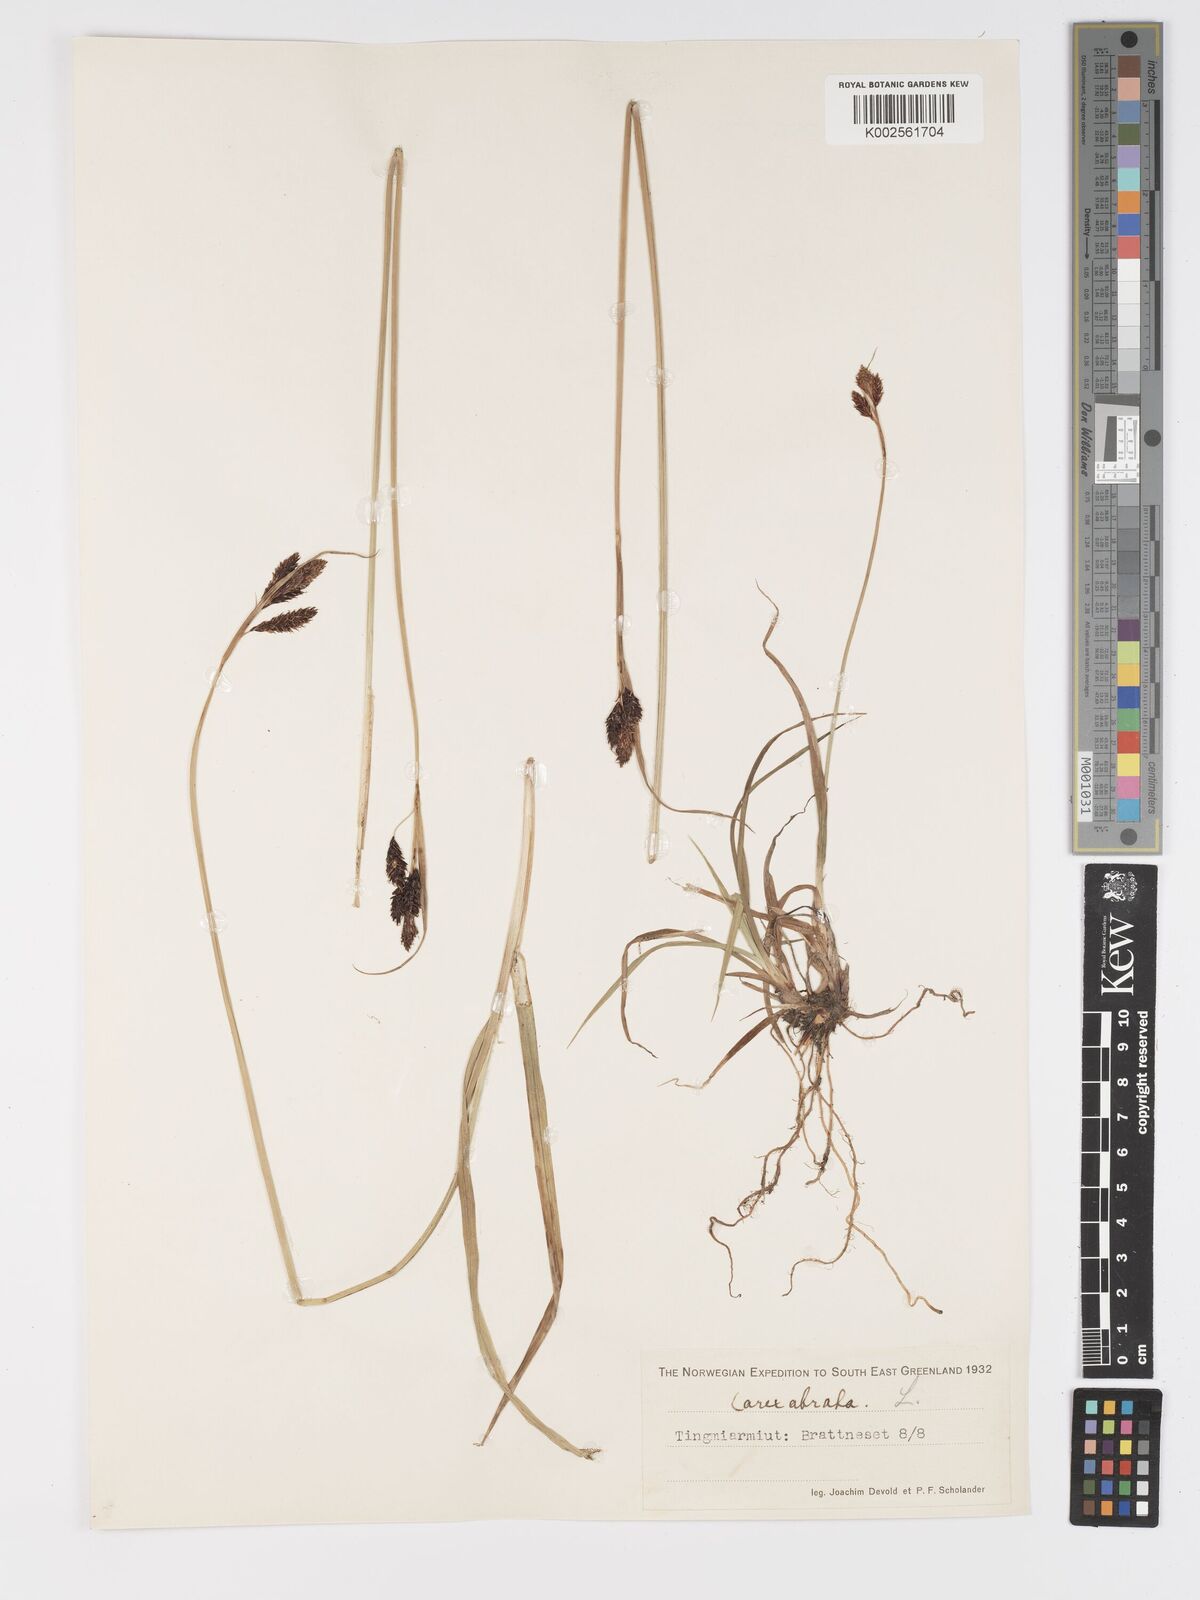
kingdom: Plantae
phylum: Tracheophyta
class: Liliopsida
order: Poales
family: Cyperaceae
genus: Carex
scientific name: Carex atrata
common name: Black alpine sedge
